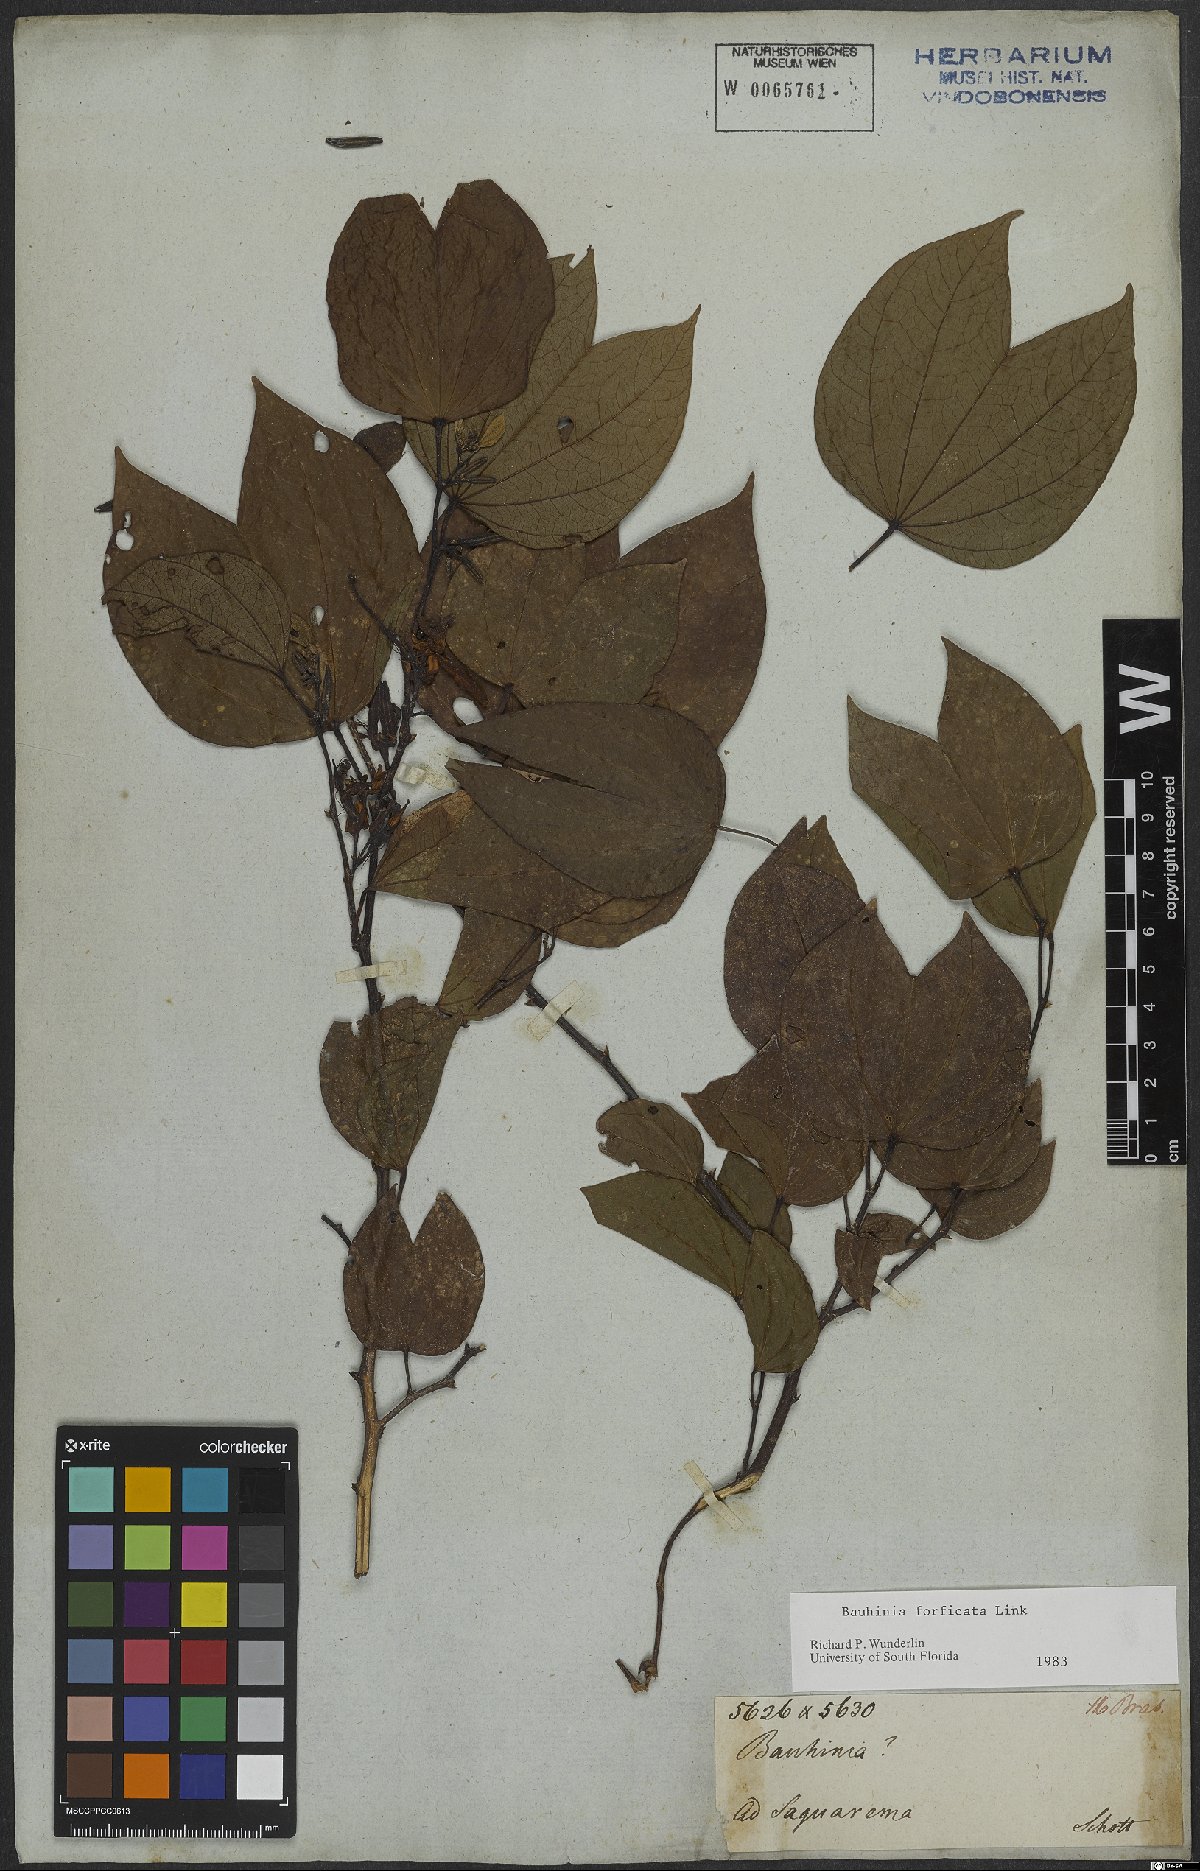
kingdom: Plantae
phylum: Tracheophyta
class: Magnoliopsida
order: Fabales
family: Fabaceae
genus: Bauhinia
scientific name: Bauhinia forficata
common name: Orchid tree
